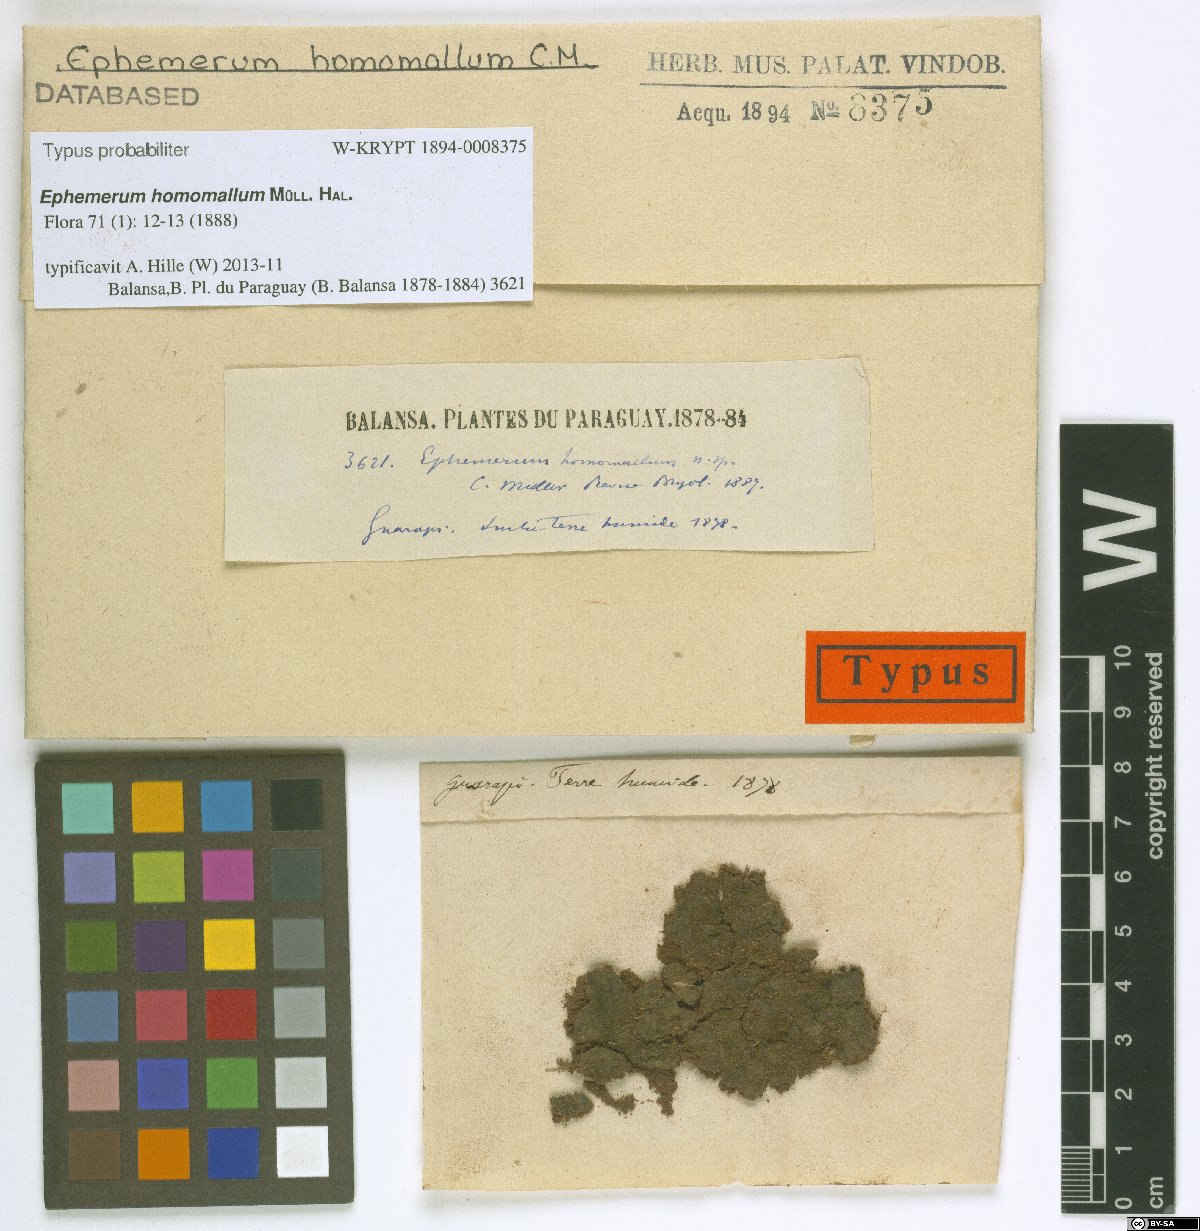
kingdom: Plantae
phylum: Bryophyta
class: Bryopsida
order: Pottiales
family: Ephemeraceae
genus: Ephemerum
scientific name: Ephemerum homomallum
